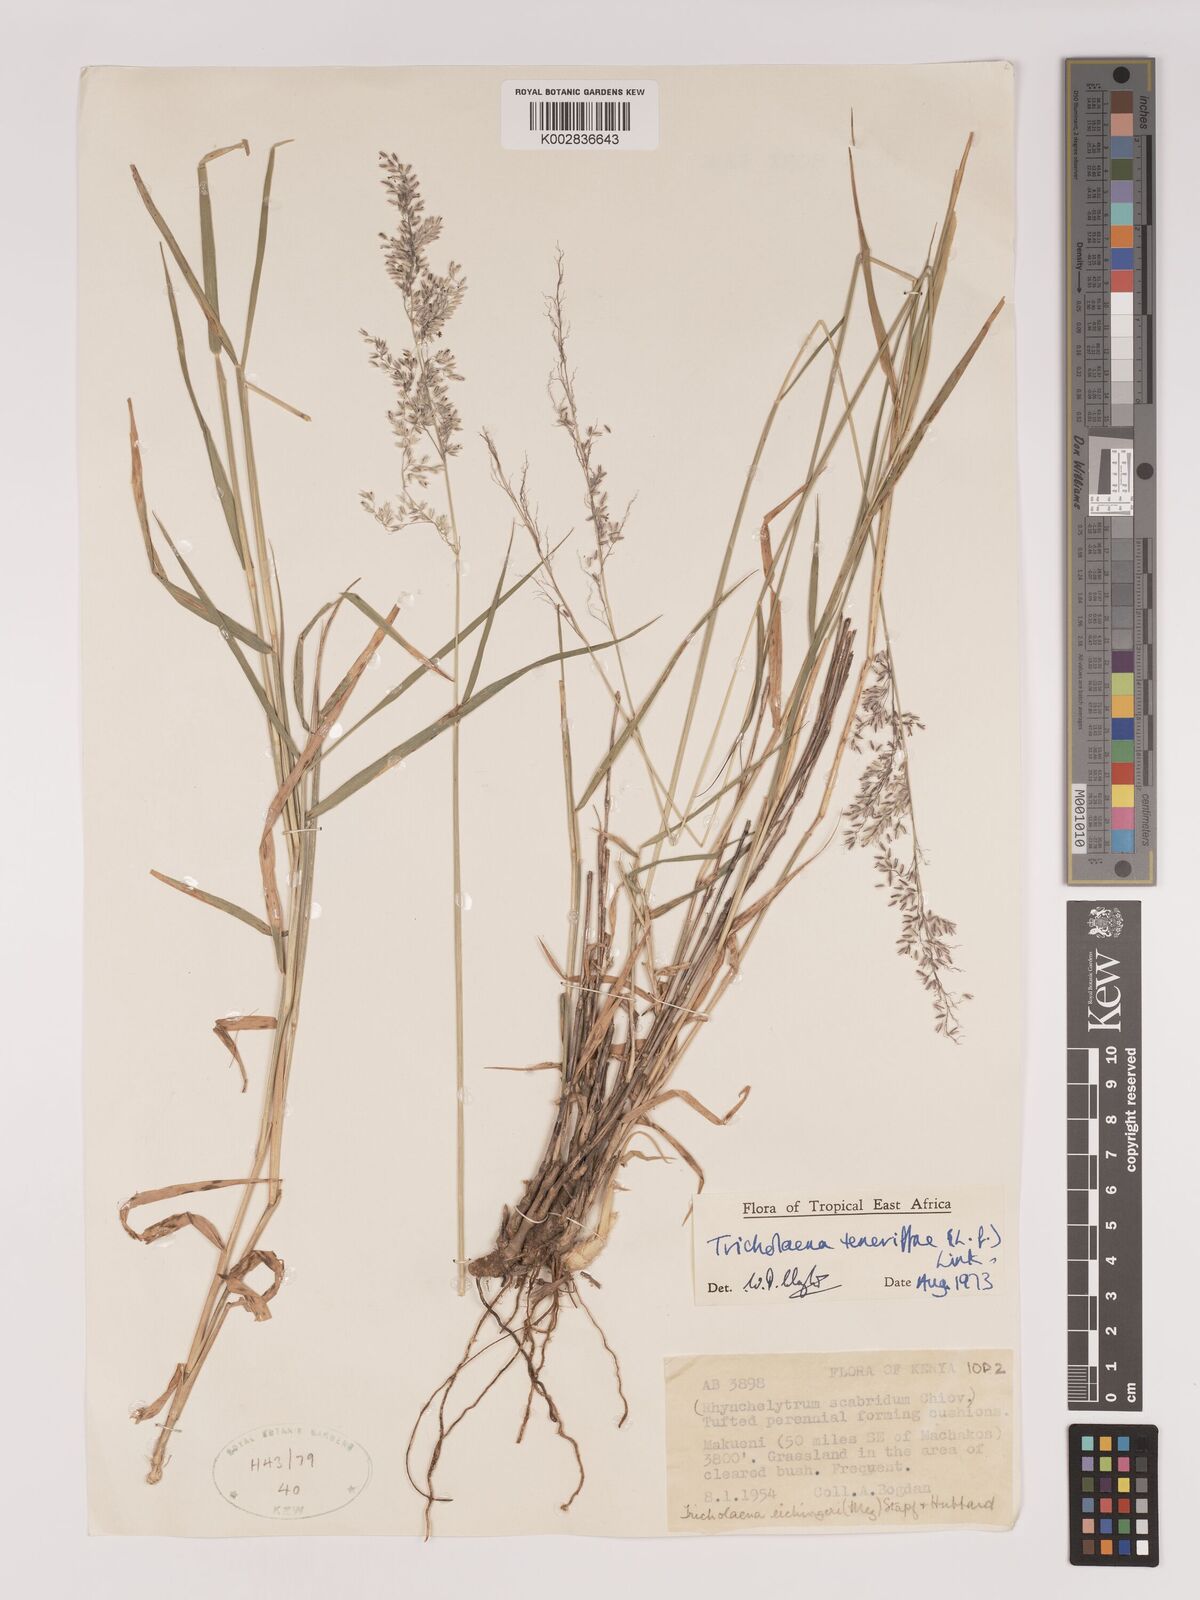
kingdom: Plantae
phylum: Tracheophyta
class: Liliopsida
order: Poales
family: Poaceae
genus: Tricholaena
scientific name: Tricholaena teneriffae
